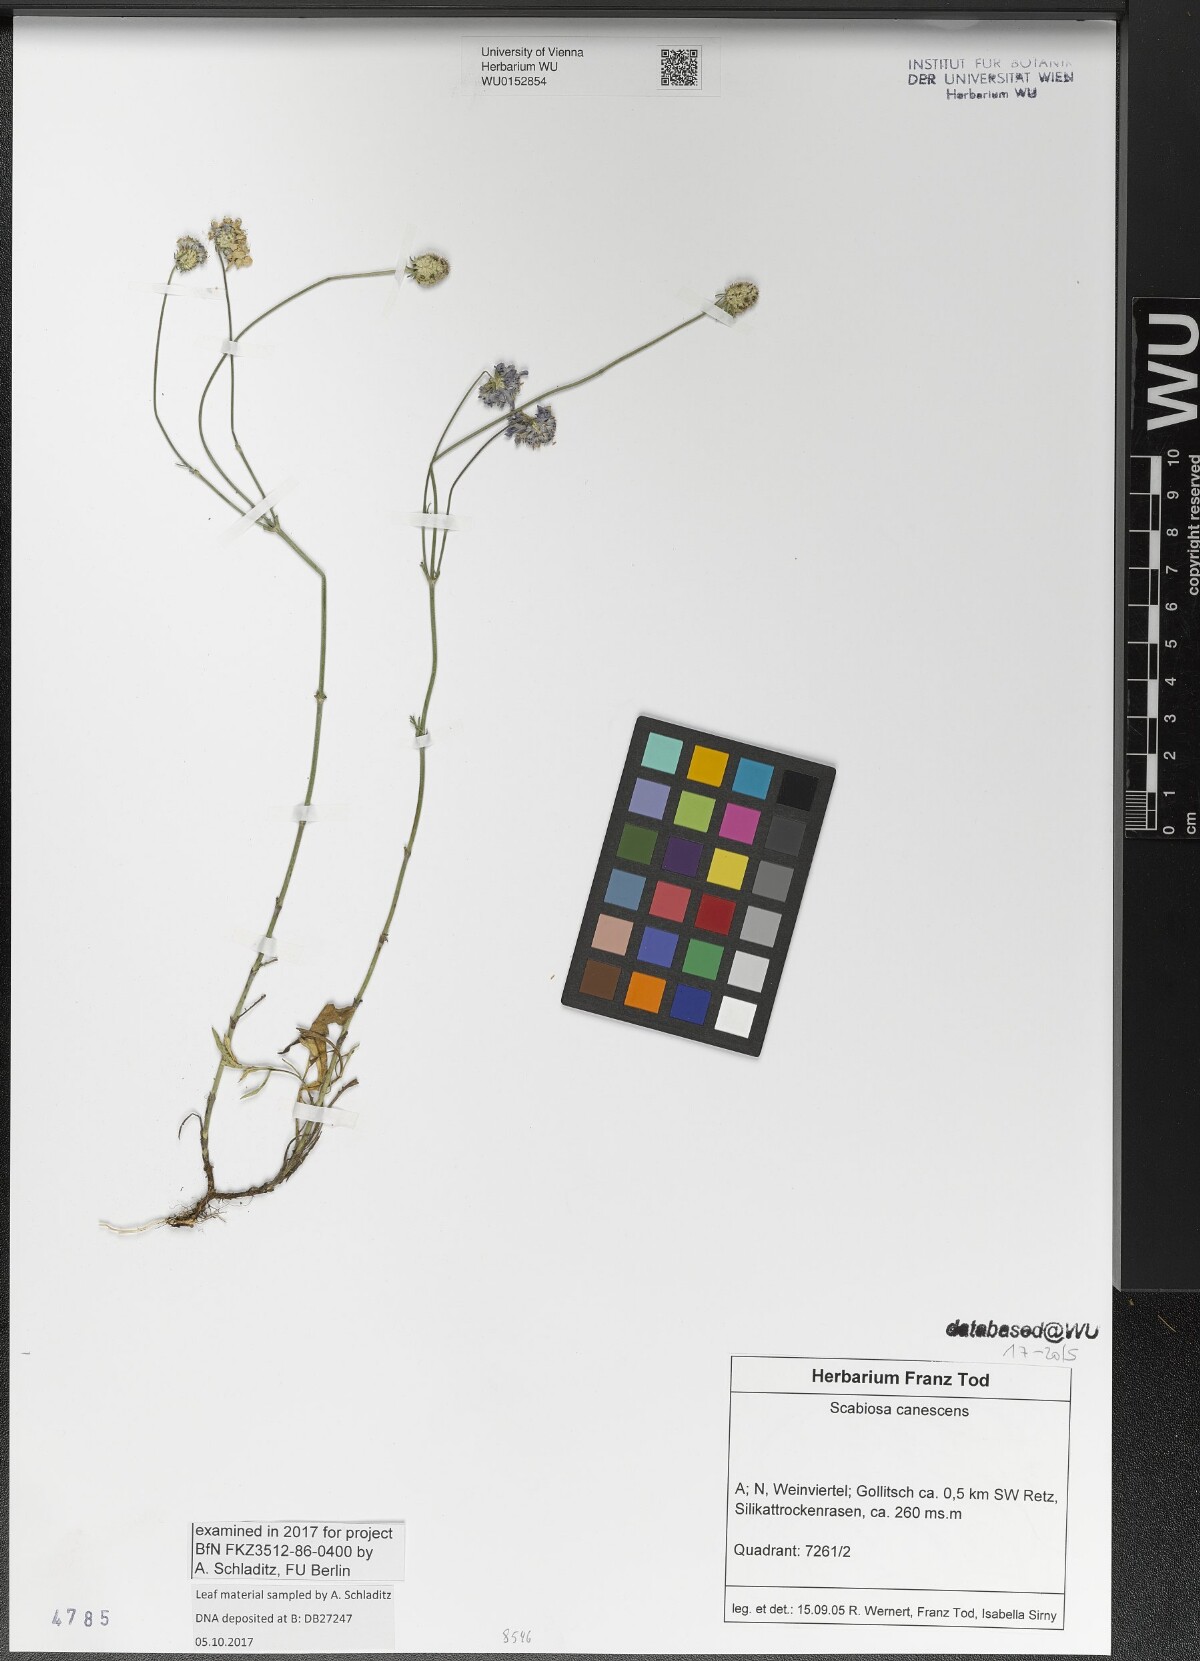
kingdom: Plantae
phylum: Tracheophyta
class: Magnoliopsida
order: Dipsacales
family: Caprifoliaceae
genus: Scabiosa
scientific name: Scabiosa canescens
